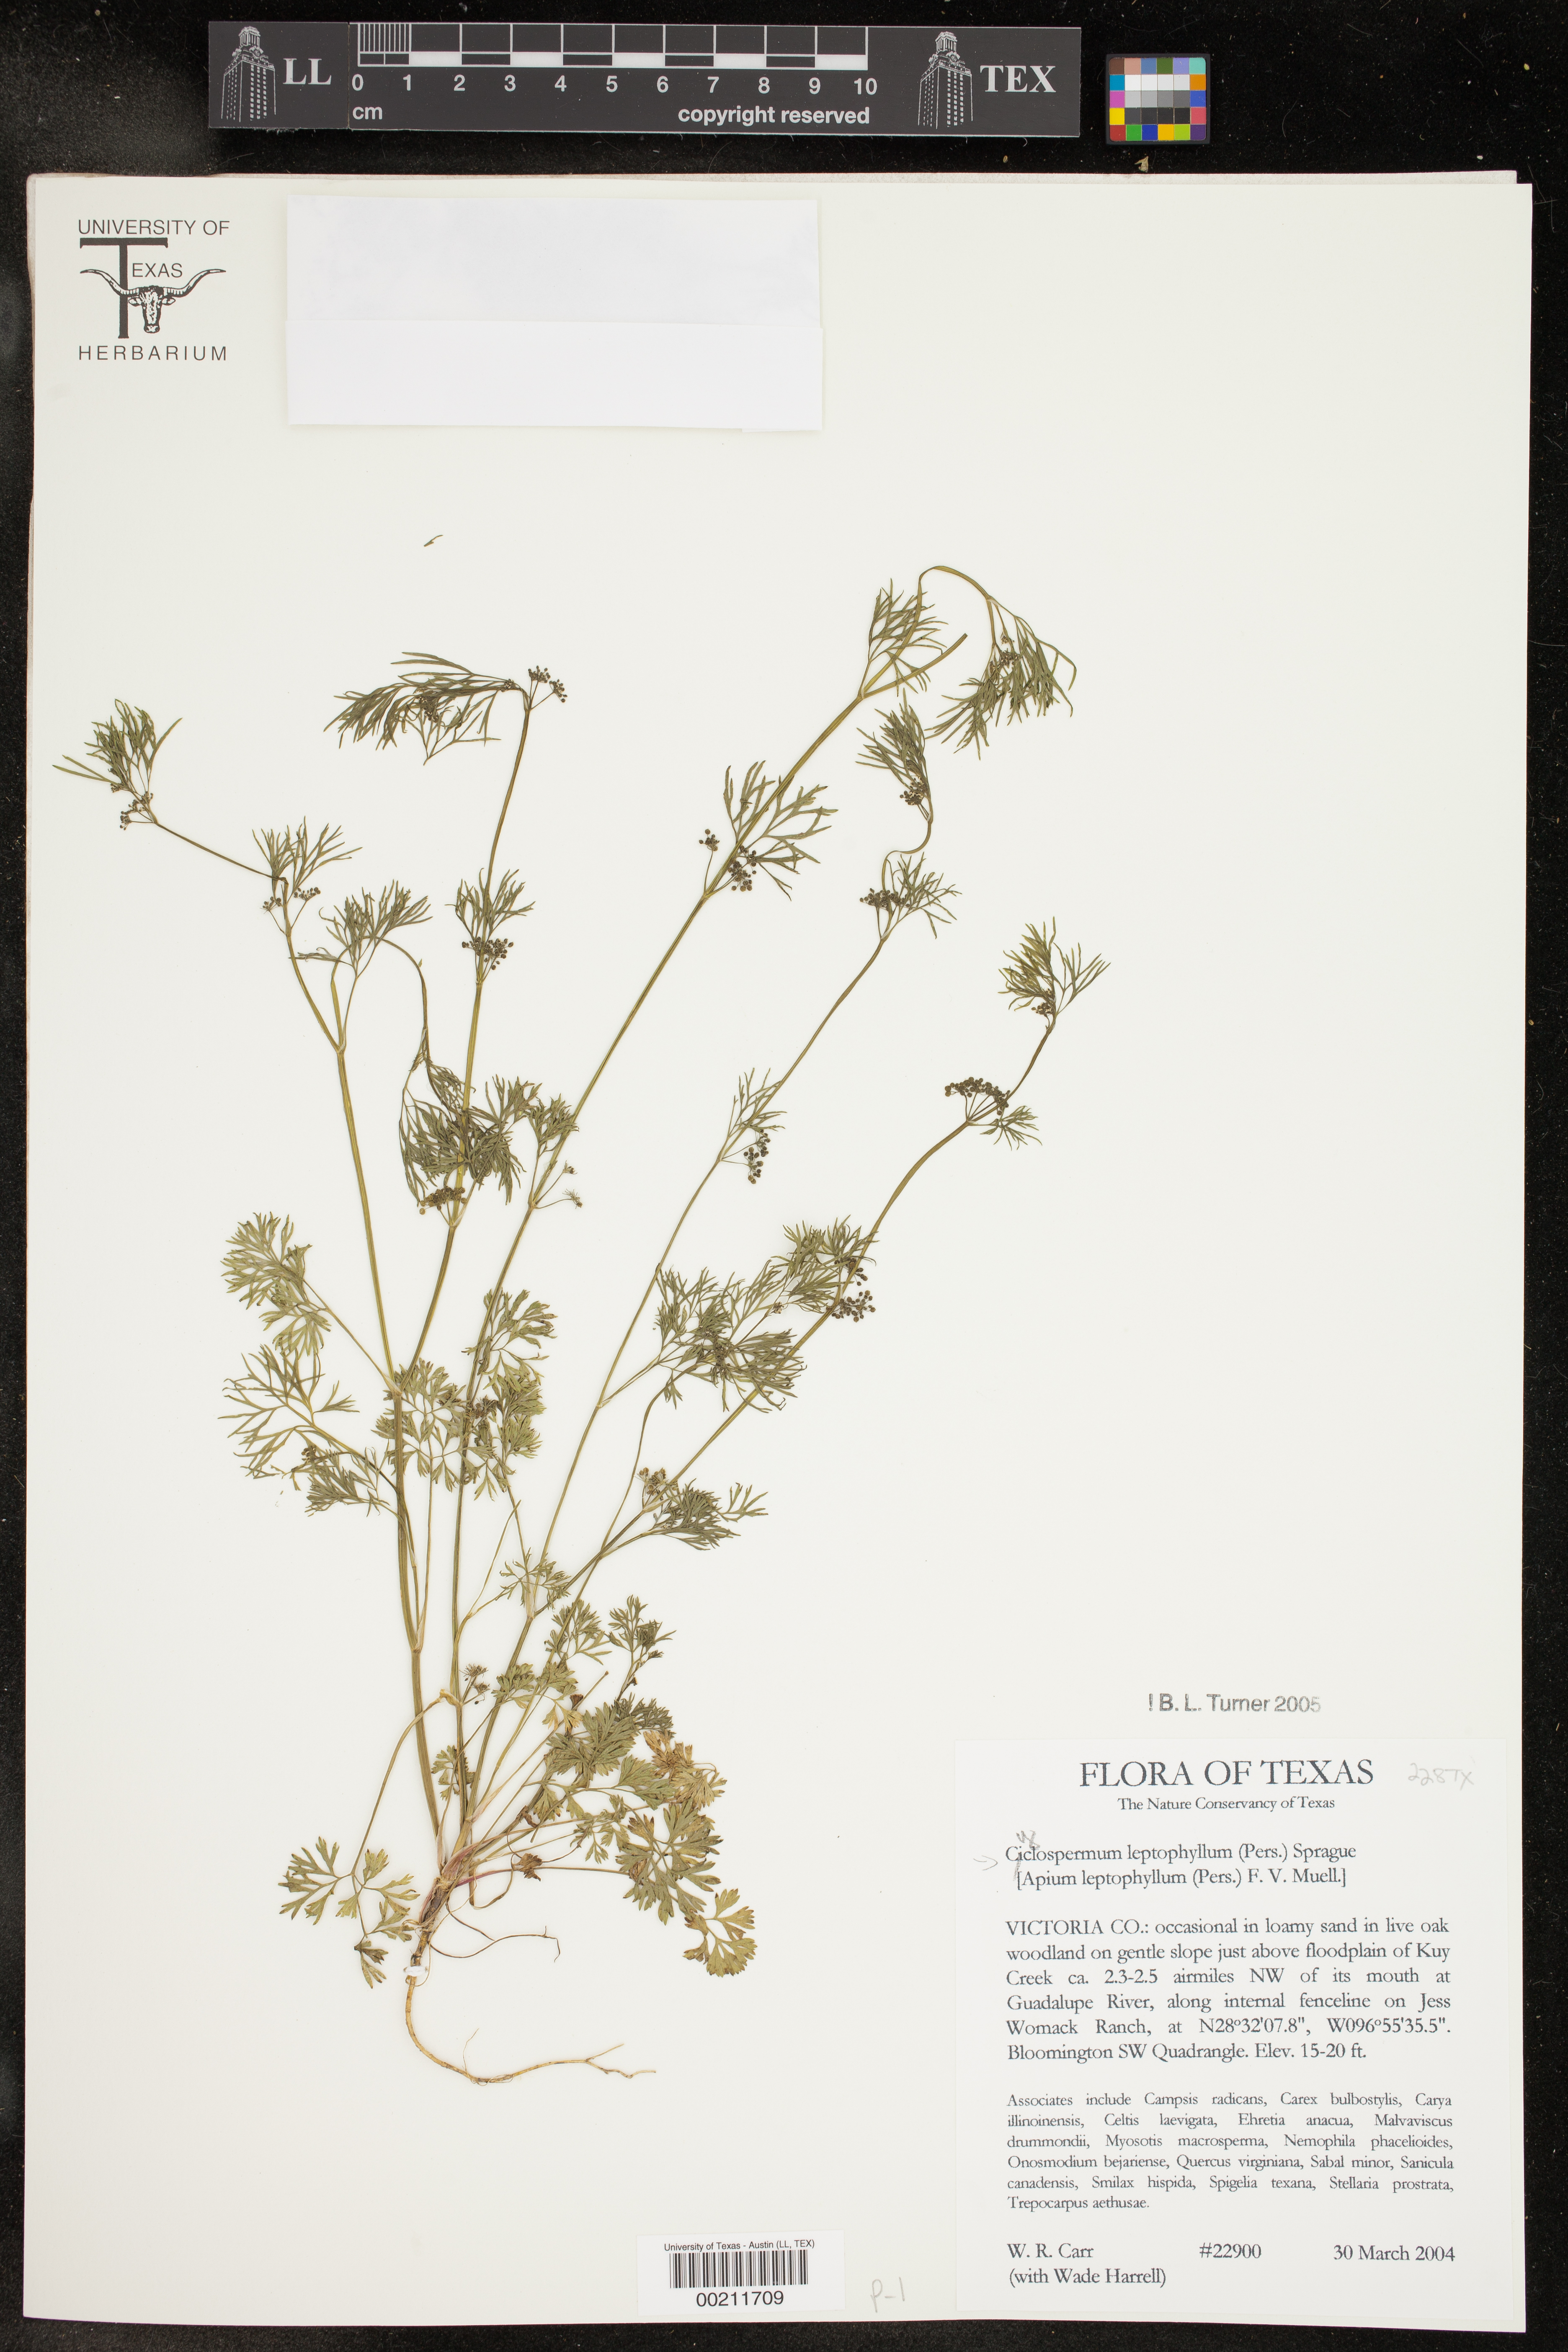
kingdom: Plantae
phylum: Tracheophyta
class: Magnoliopsida
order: Apiales
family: Apiaceae
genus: Cyclospermum
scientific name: Cyclospermum leptophyllum
